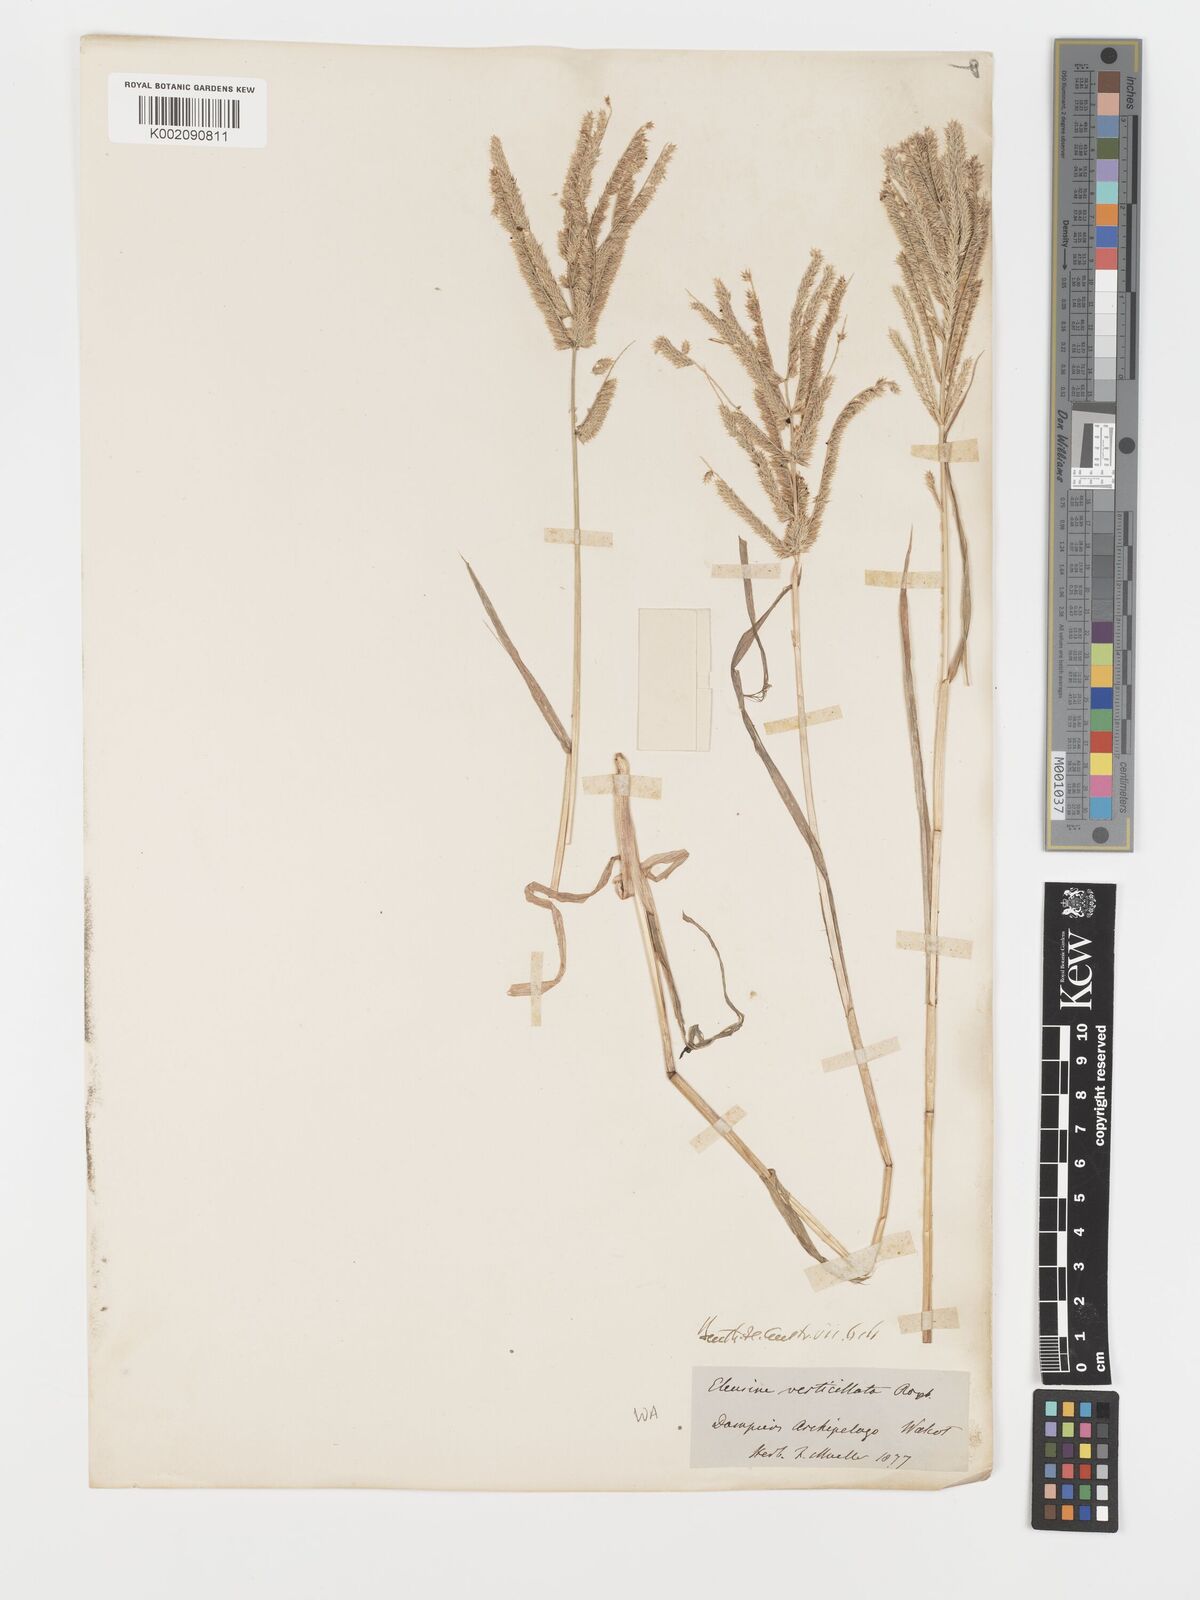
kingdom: Plantae
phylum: Tracheophyta
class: Liliopsida
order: Poales
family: Poaceae
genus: Acrachne
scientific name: Acrachne racemosa
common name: Goosegrass
